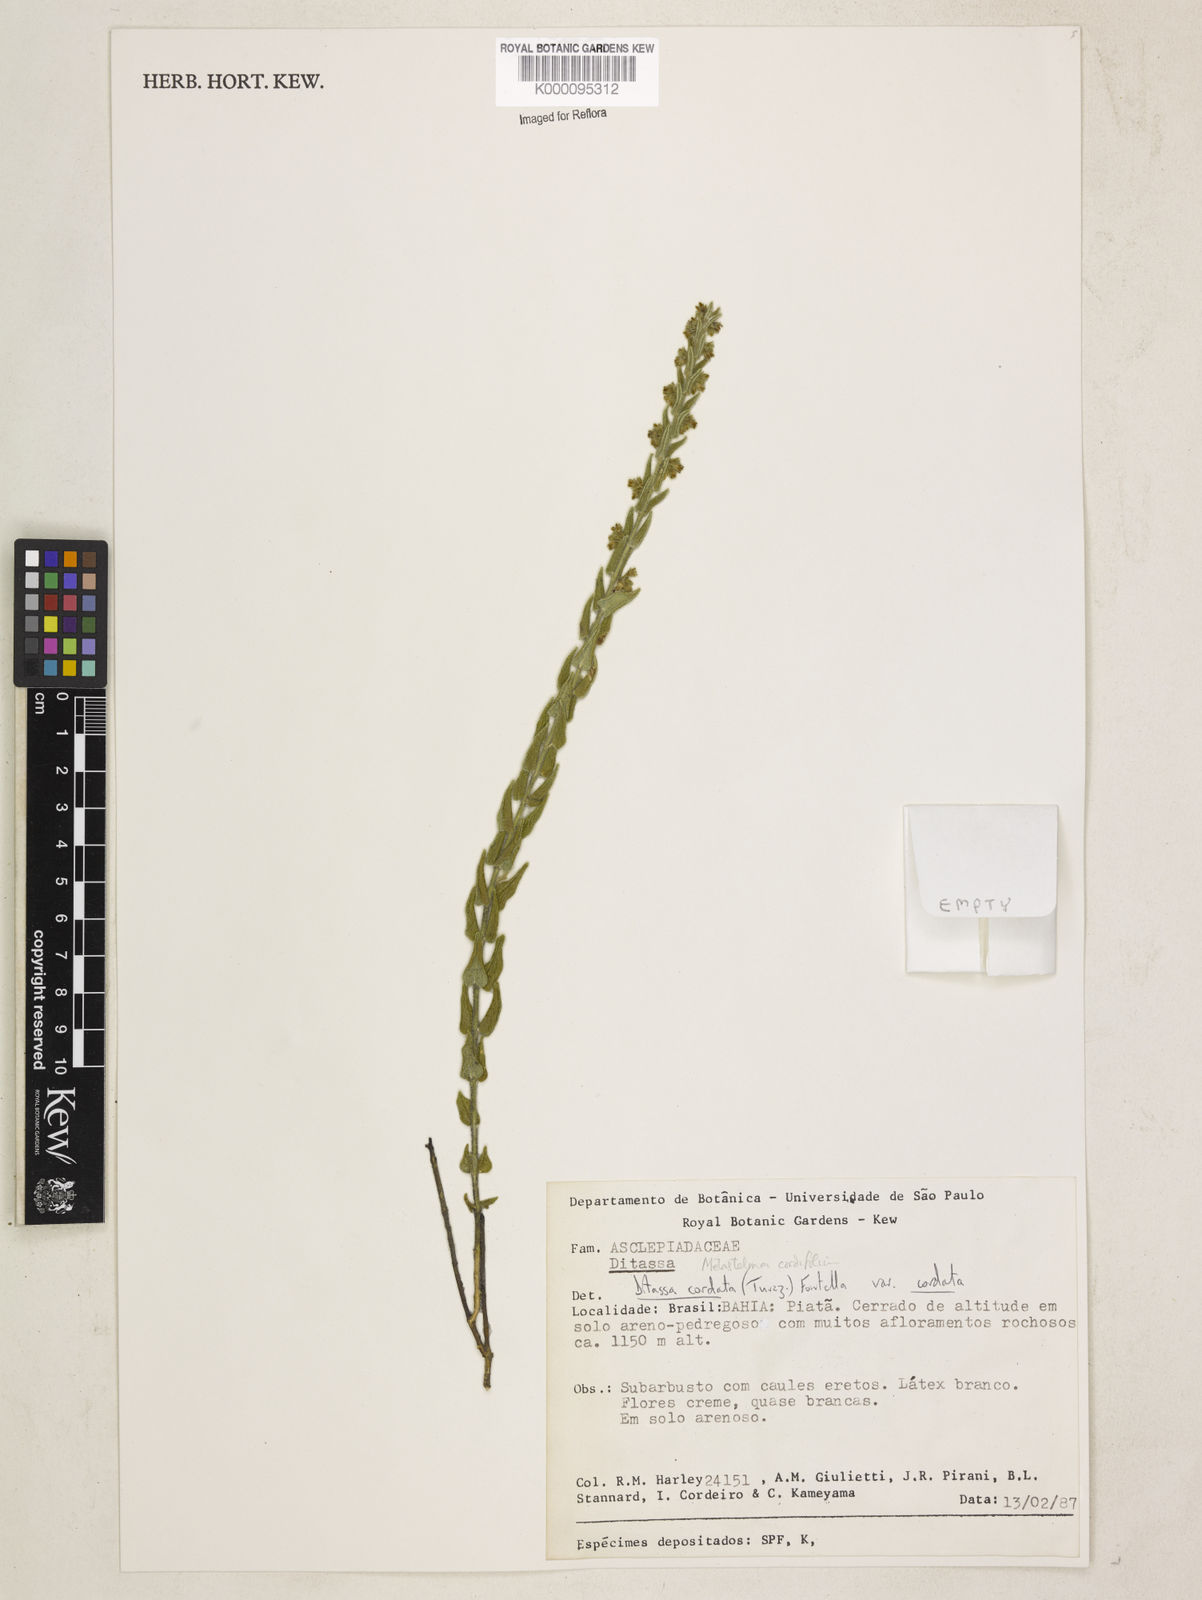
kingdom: Plantae
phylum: Tracheophyta
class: Magnoliopsida
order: Gentianales
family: Apocynaceae
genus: Minaria
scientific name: Minaria cordata
